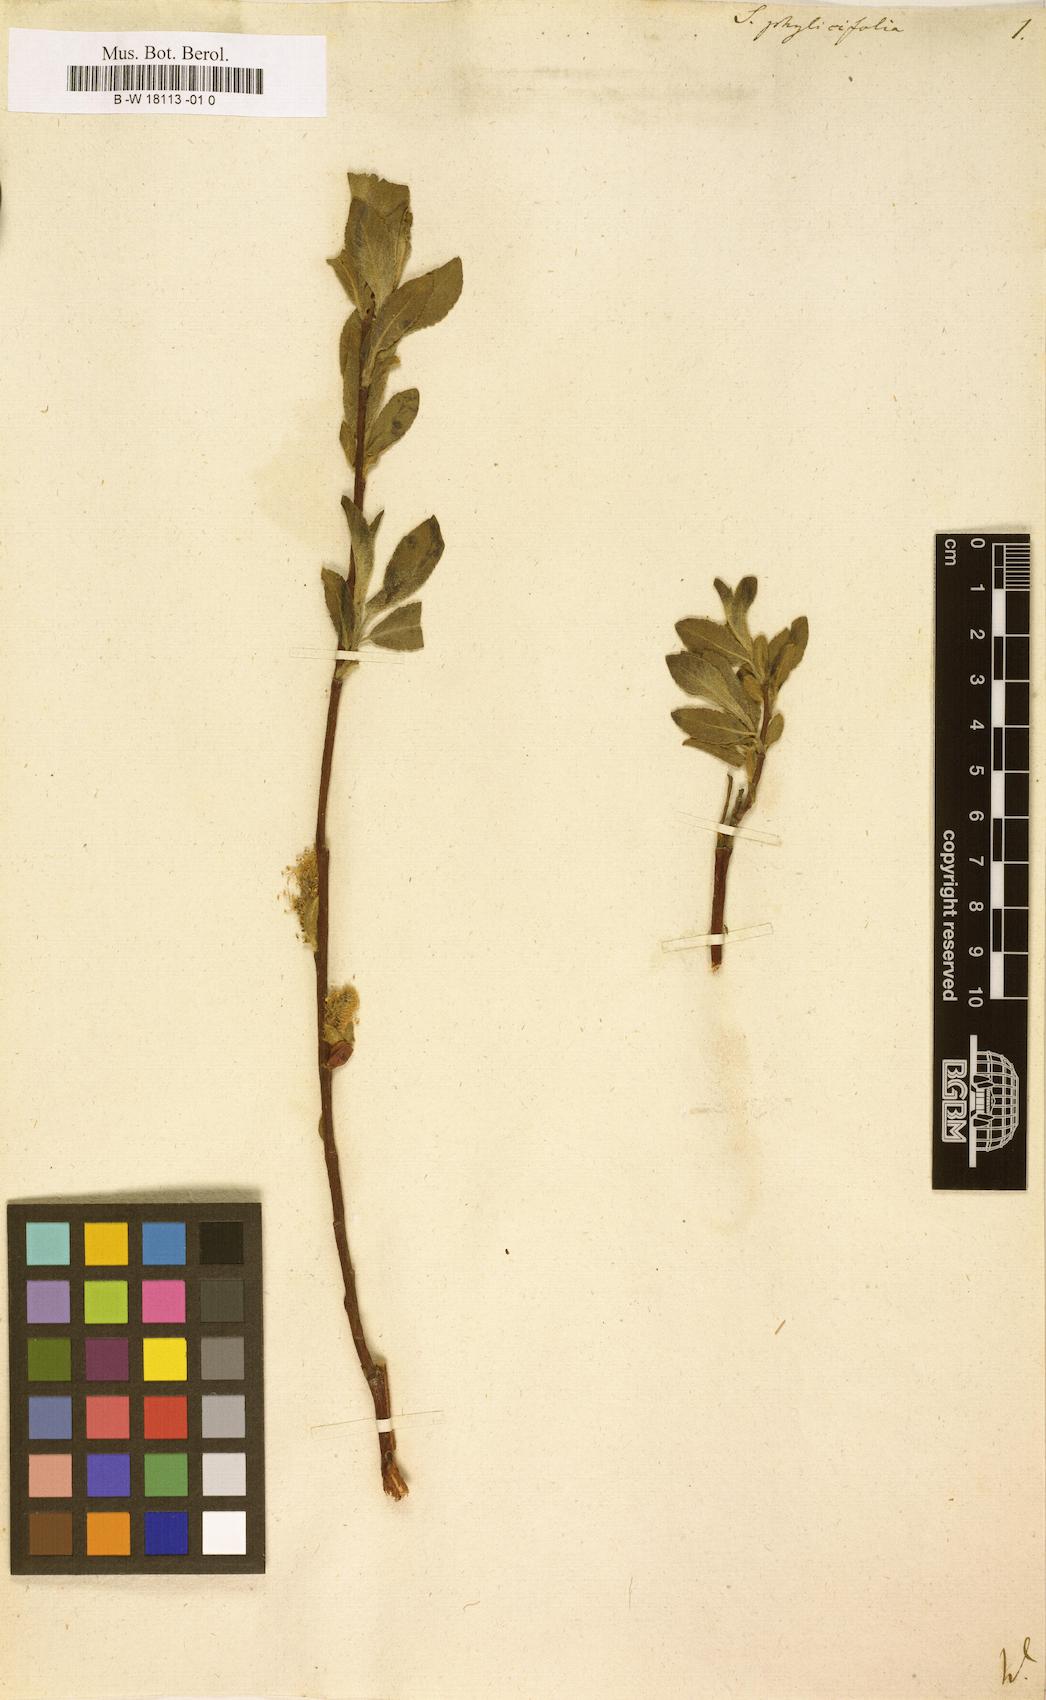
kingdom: Plantae
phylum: Tracheophyta
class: Magnoliopsida
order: Malpighiales
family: Salicaceae
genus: Salix
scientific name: Salix phylicifolia
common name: Tea-leaved willow
